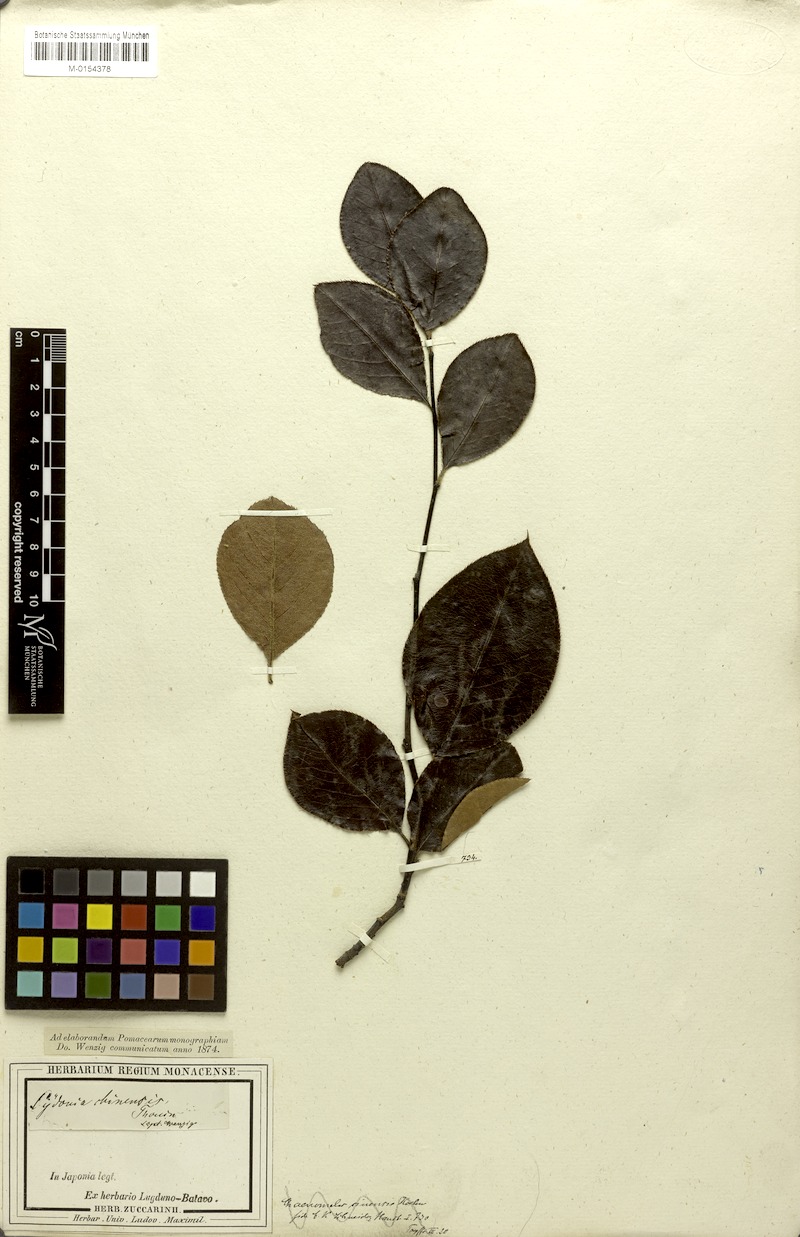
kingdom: Plantae
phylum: Tracheophyta
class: Magnoliopsida
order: Rosales
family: Rosaceae
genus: Pseudocydonia
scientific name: Pseudocydonia sinensis
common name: Chinese-quince
